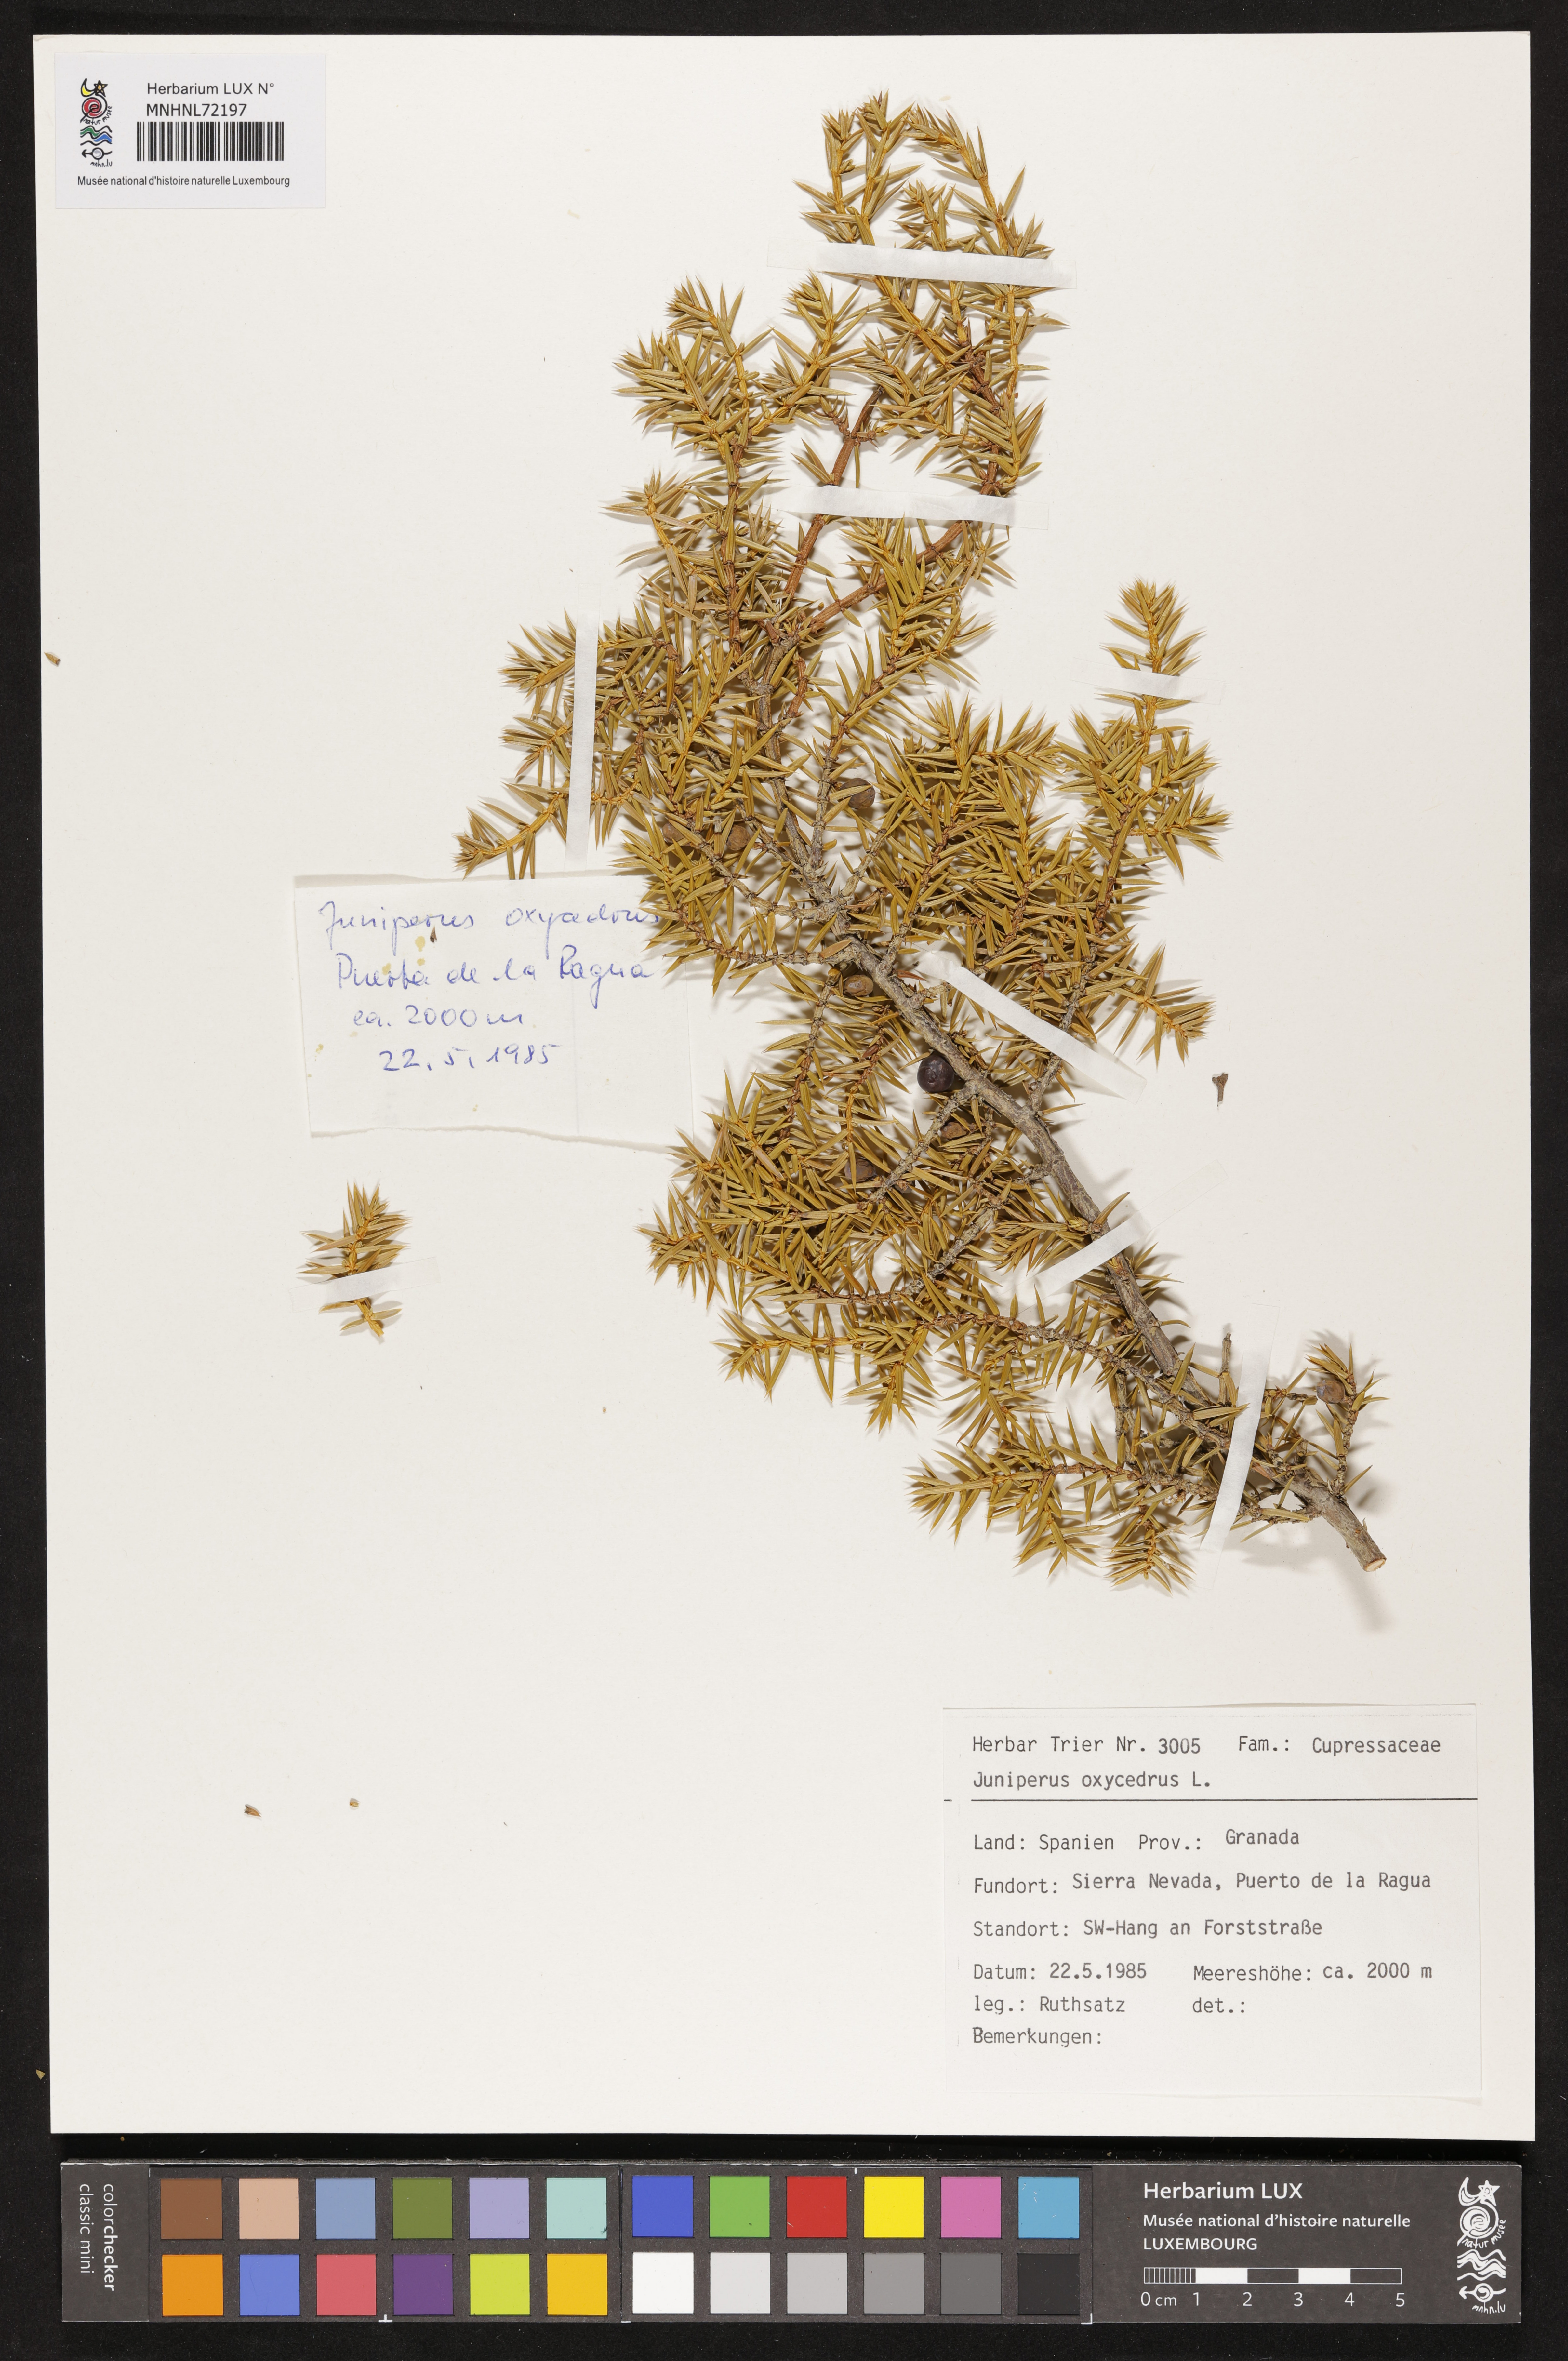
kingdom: Plantae
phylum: Tracheophyta
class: Pinopsida
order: Pinales
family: Cupressaceae
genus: Juniperus
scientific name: Juniperus oxycedrus
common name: Prickly juniper
